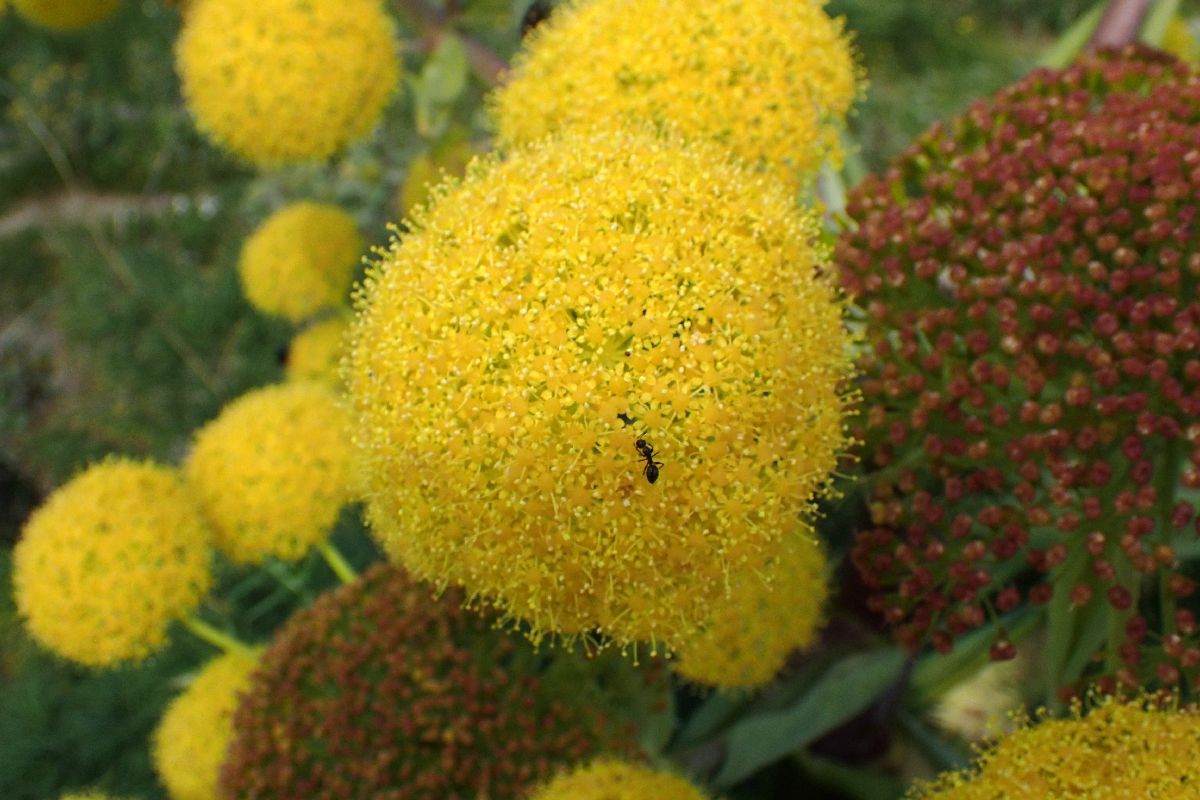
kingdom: Plantae
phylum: Tracheophyta
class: Magnoliopsida
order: Apiales
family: Apiaceae
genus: Ferula
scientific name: Ferula communis
